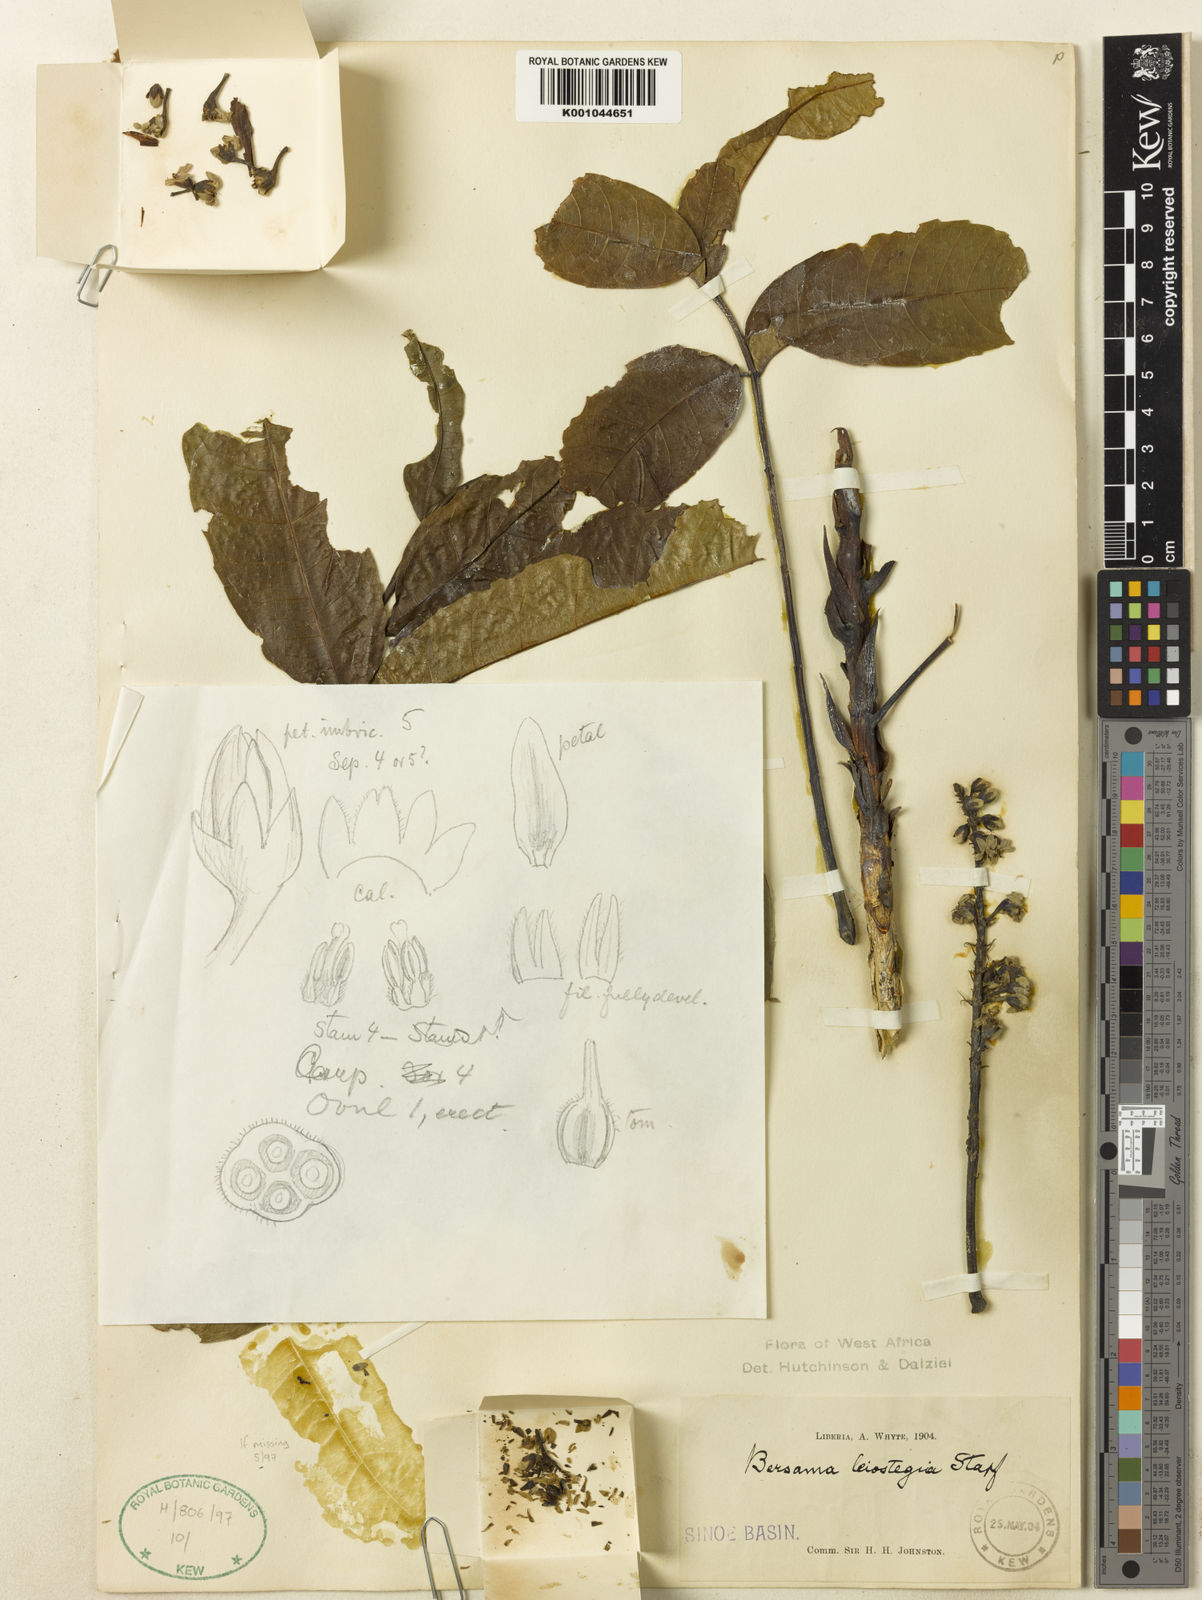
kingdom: Plantae
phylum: Tracheophyta
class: Magnoliopsida
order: Geraniales
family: Melianthaceae
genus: Bersama
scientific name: Bersama abyssinica
